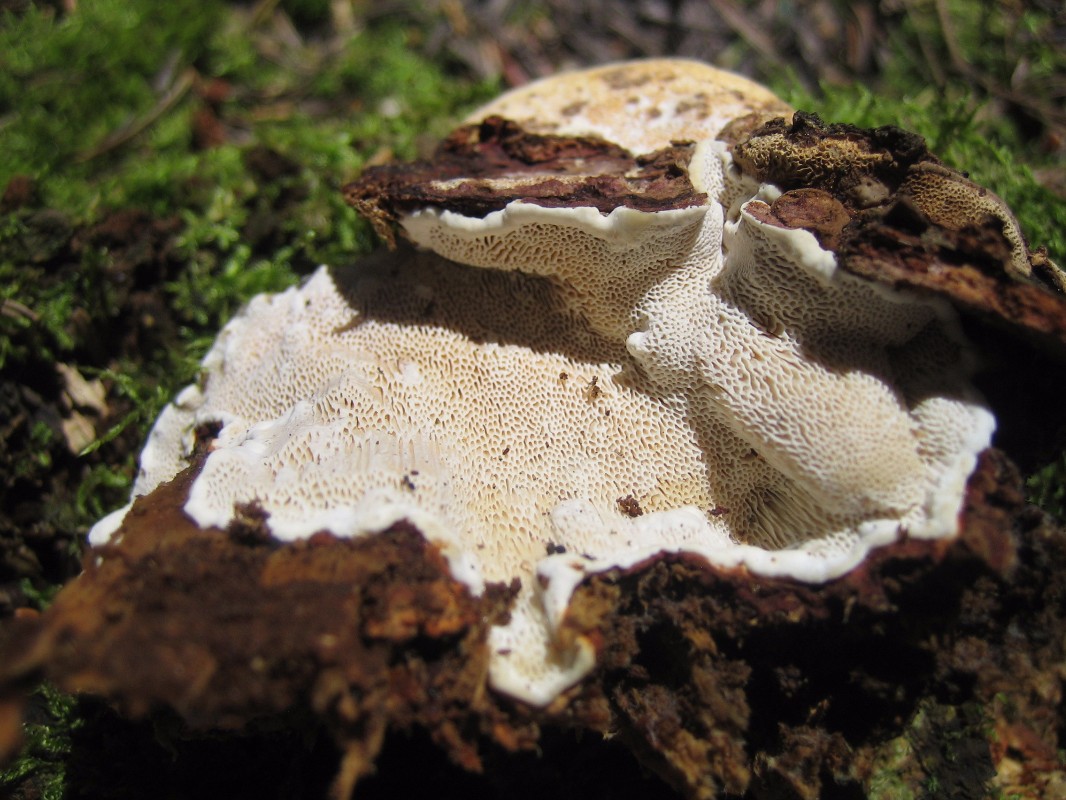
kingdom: Fungi
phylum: Basidiomycota
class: Agaricomycetes
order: Russulales
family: Bondarzewiaceae
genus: Heterobasidion
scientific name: Heterobasidion annosum
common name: almindelig rodfordærver
